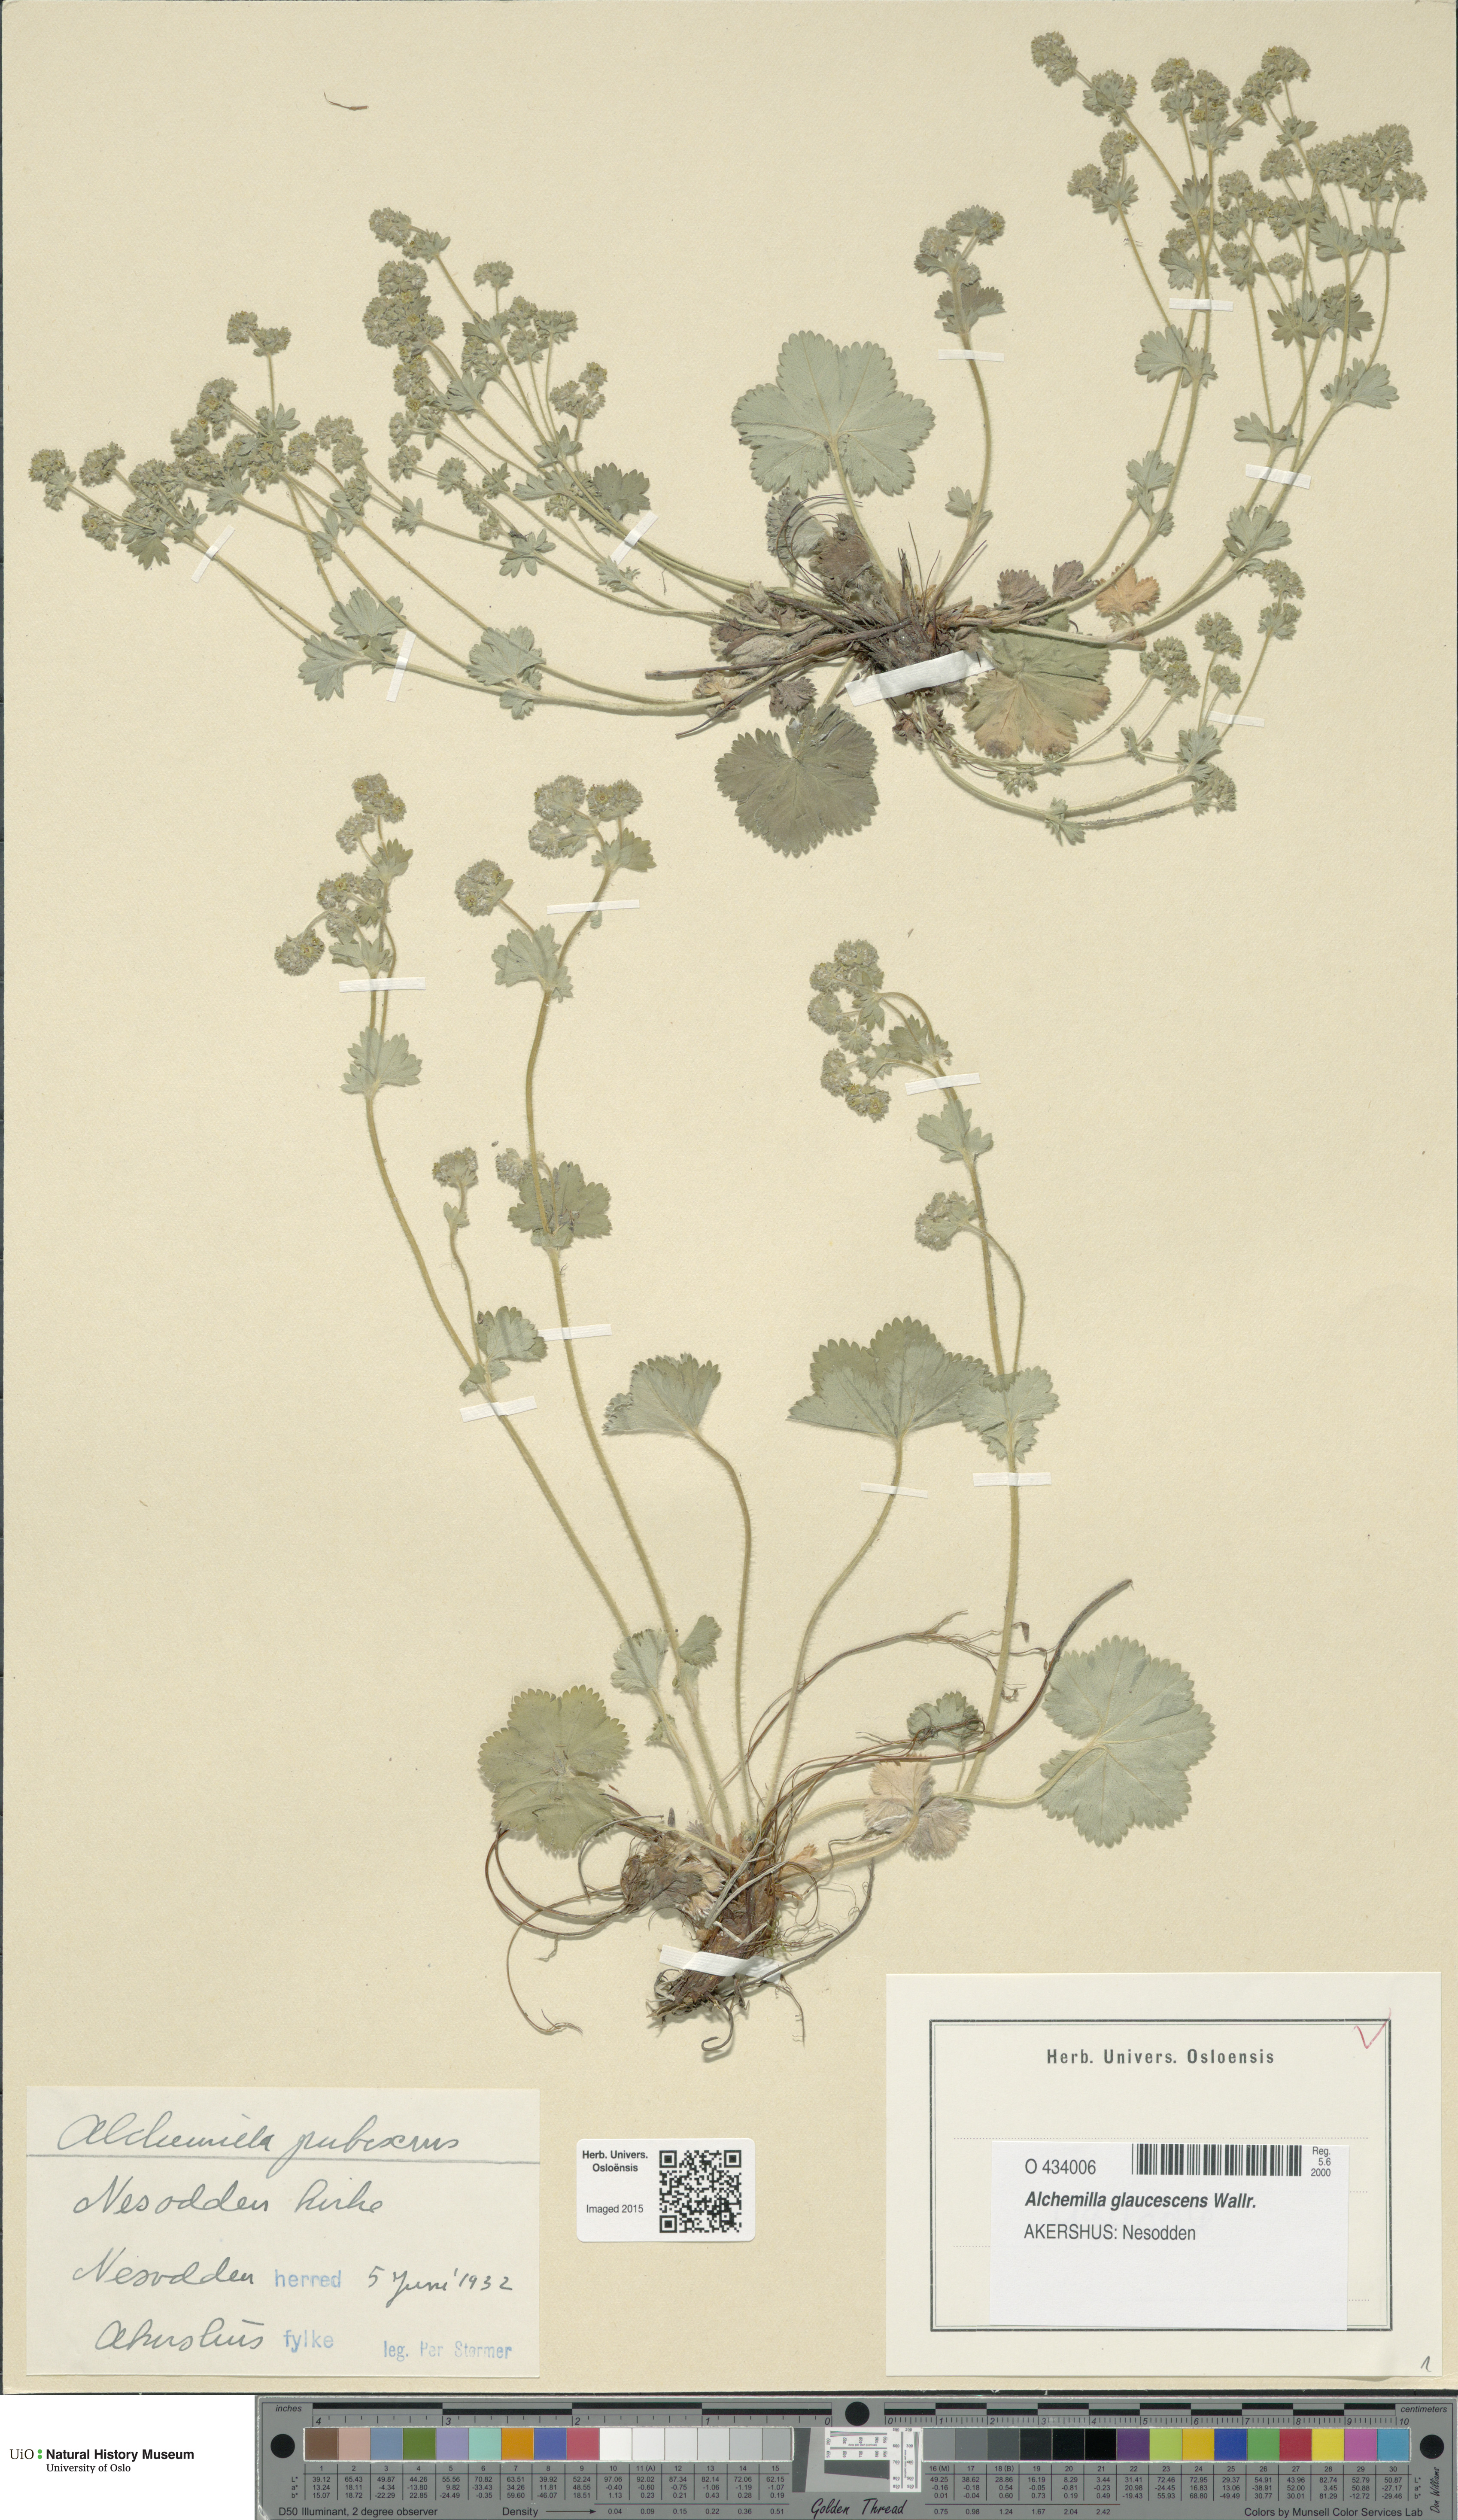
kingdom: Plantae
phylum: Tracheophyta
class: Magnoliopsida
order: Rosales
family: Rosaceae
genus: Alchemilla
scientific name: Alchemilla glaucescens
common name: Silky lady's mantle
